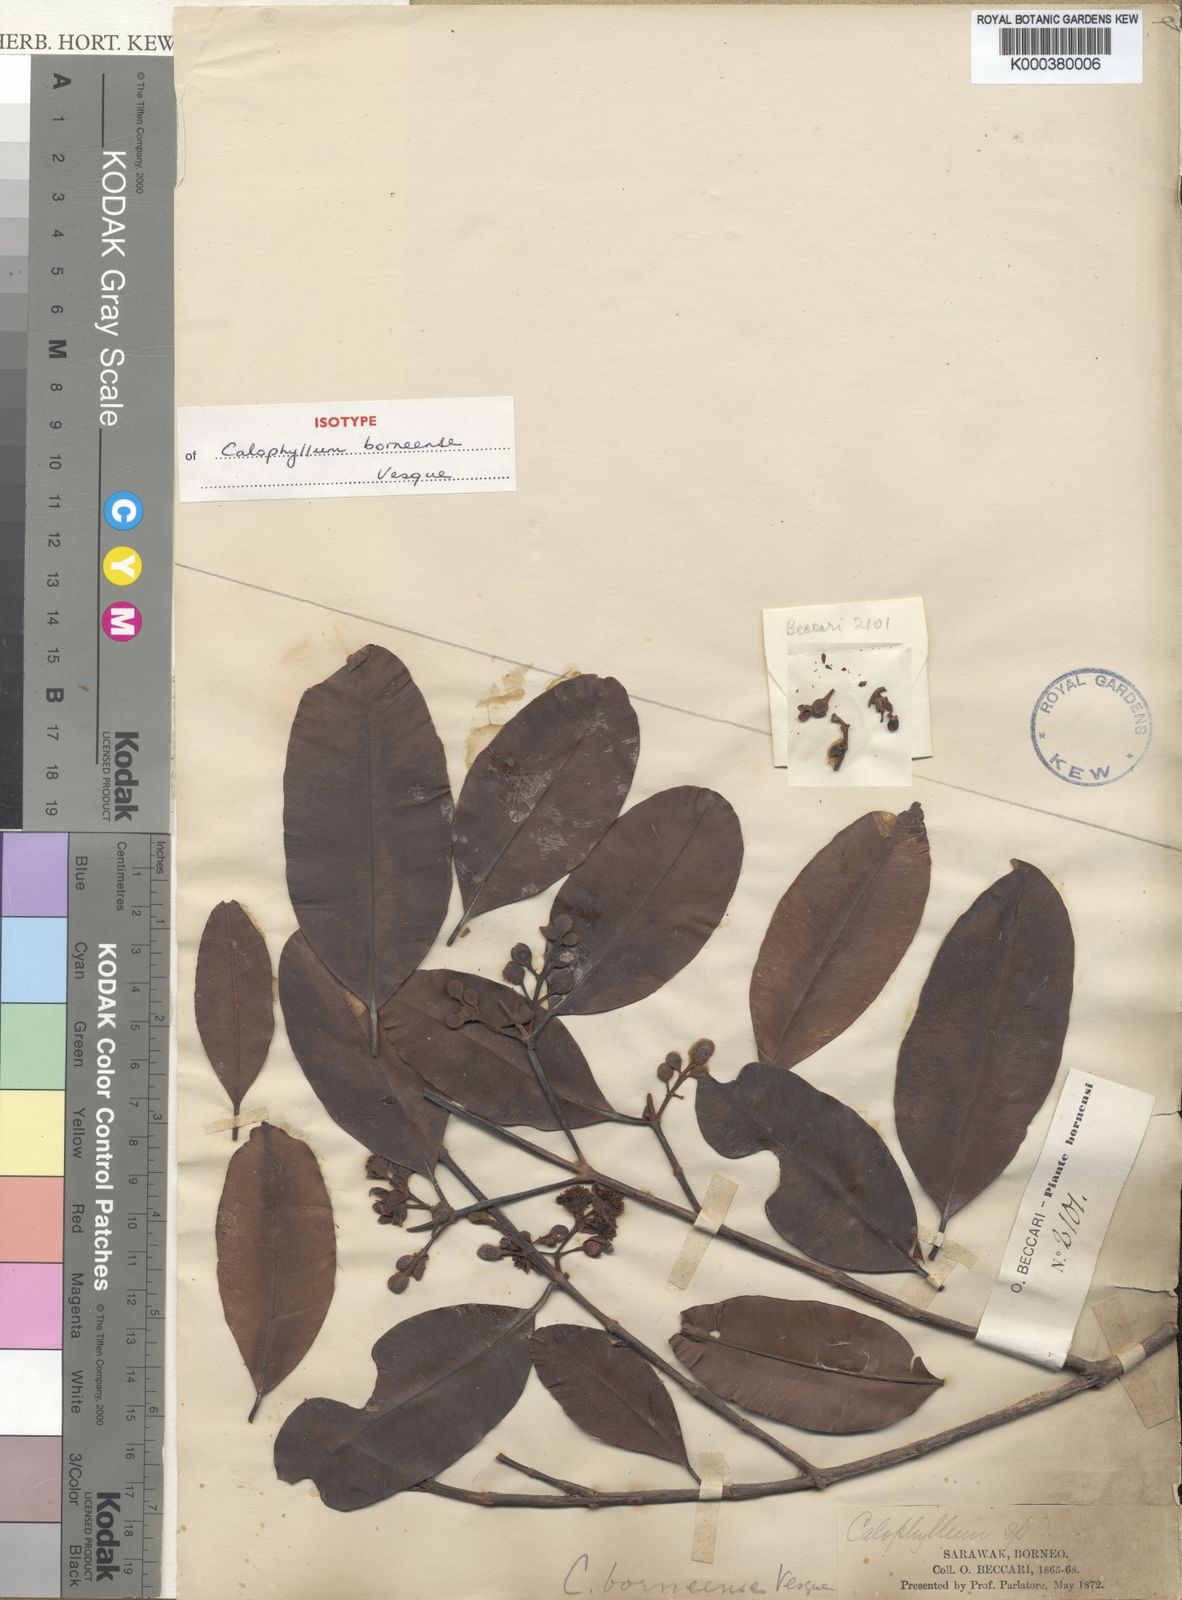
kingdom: Plantae
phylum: Tracheophyta
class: Magnoliopsida
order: Malpighiales
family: Calophyllaceae
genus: Calophyllum
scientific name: Calophyllum
